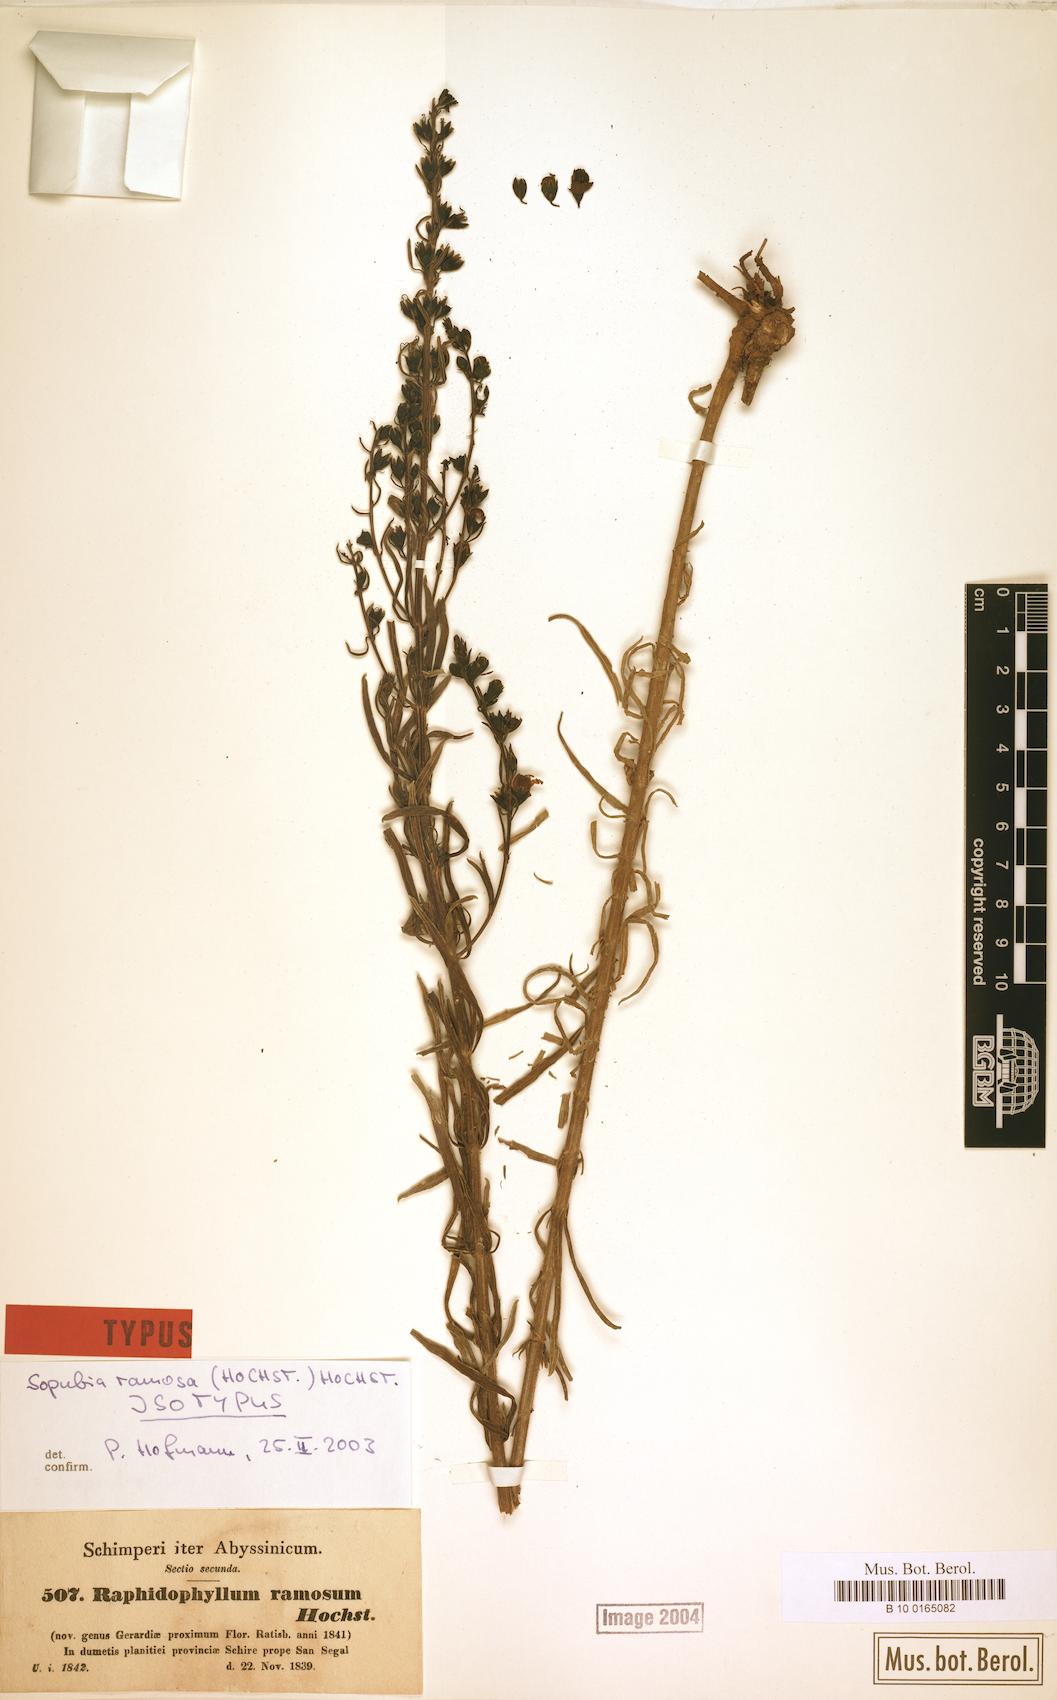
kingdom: Plantae
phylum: Tracheophyta
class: Magnoliopsida
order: Lamiales
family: Orobanchaceae
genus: Sopubia
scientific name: Sopubia ramosa
